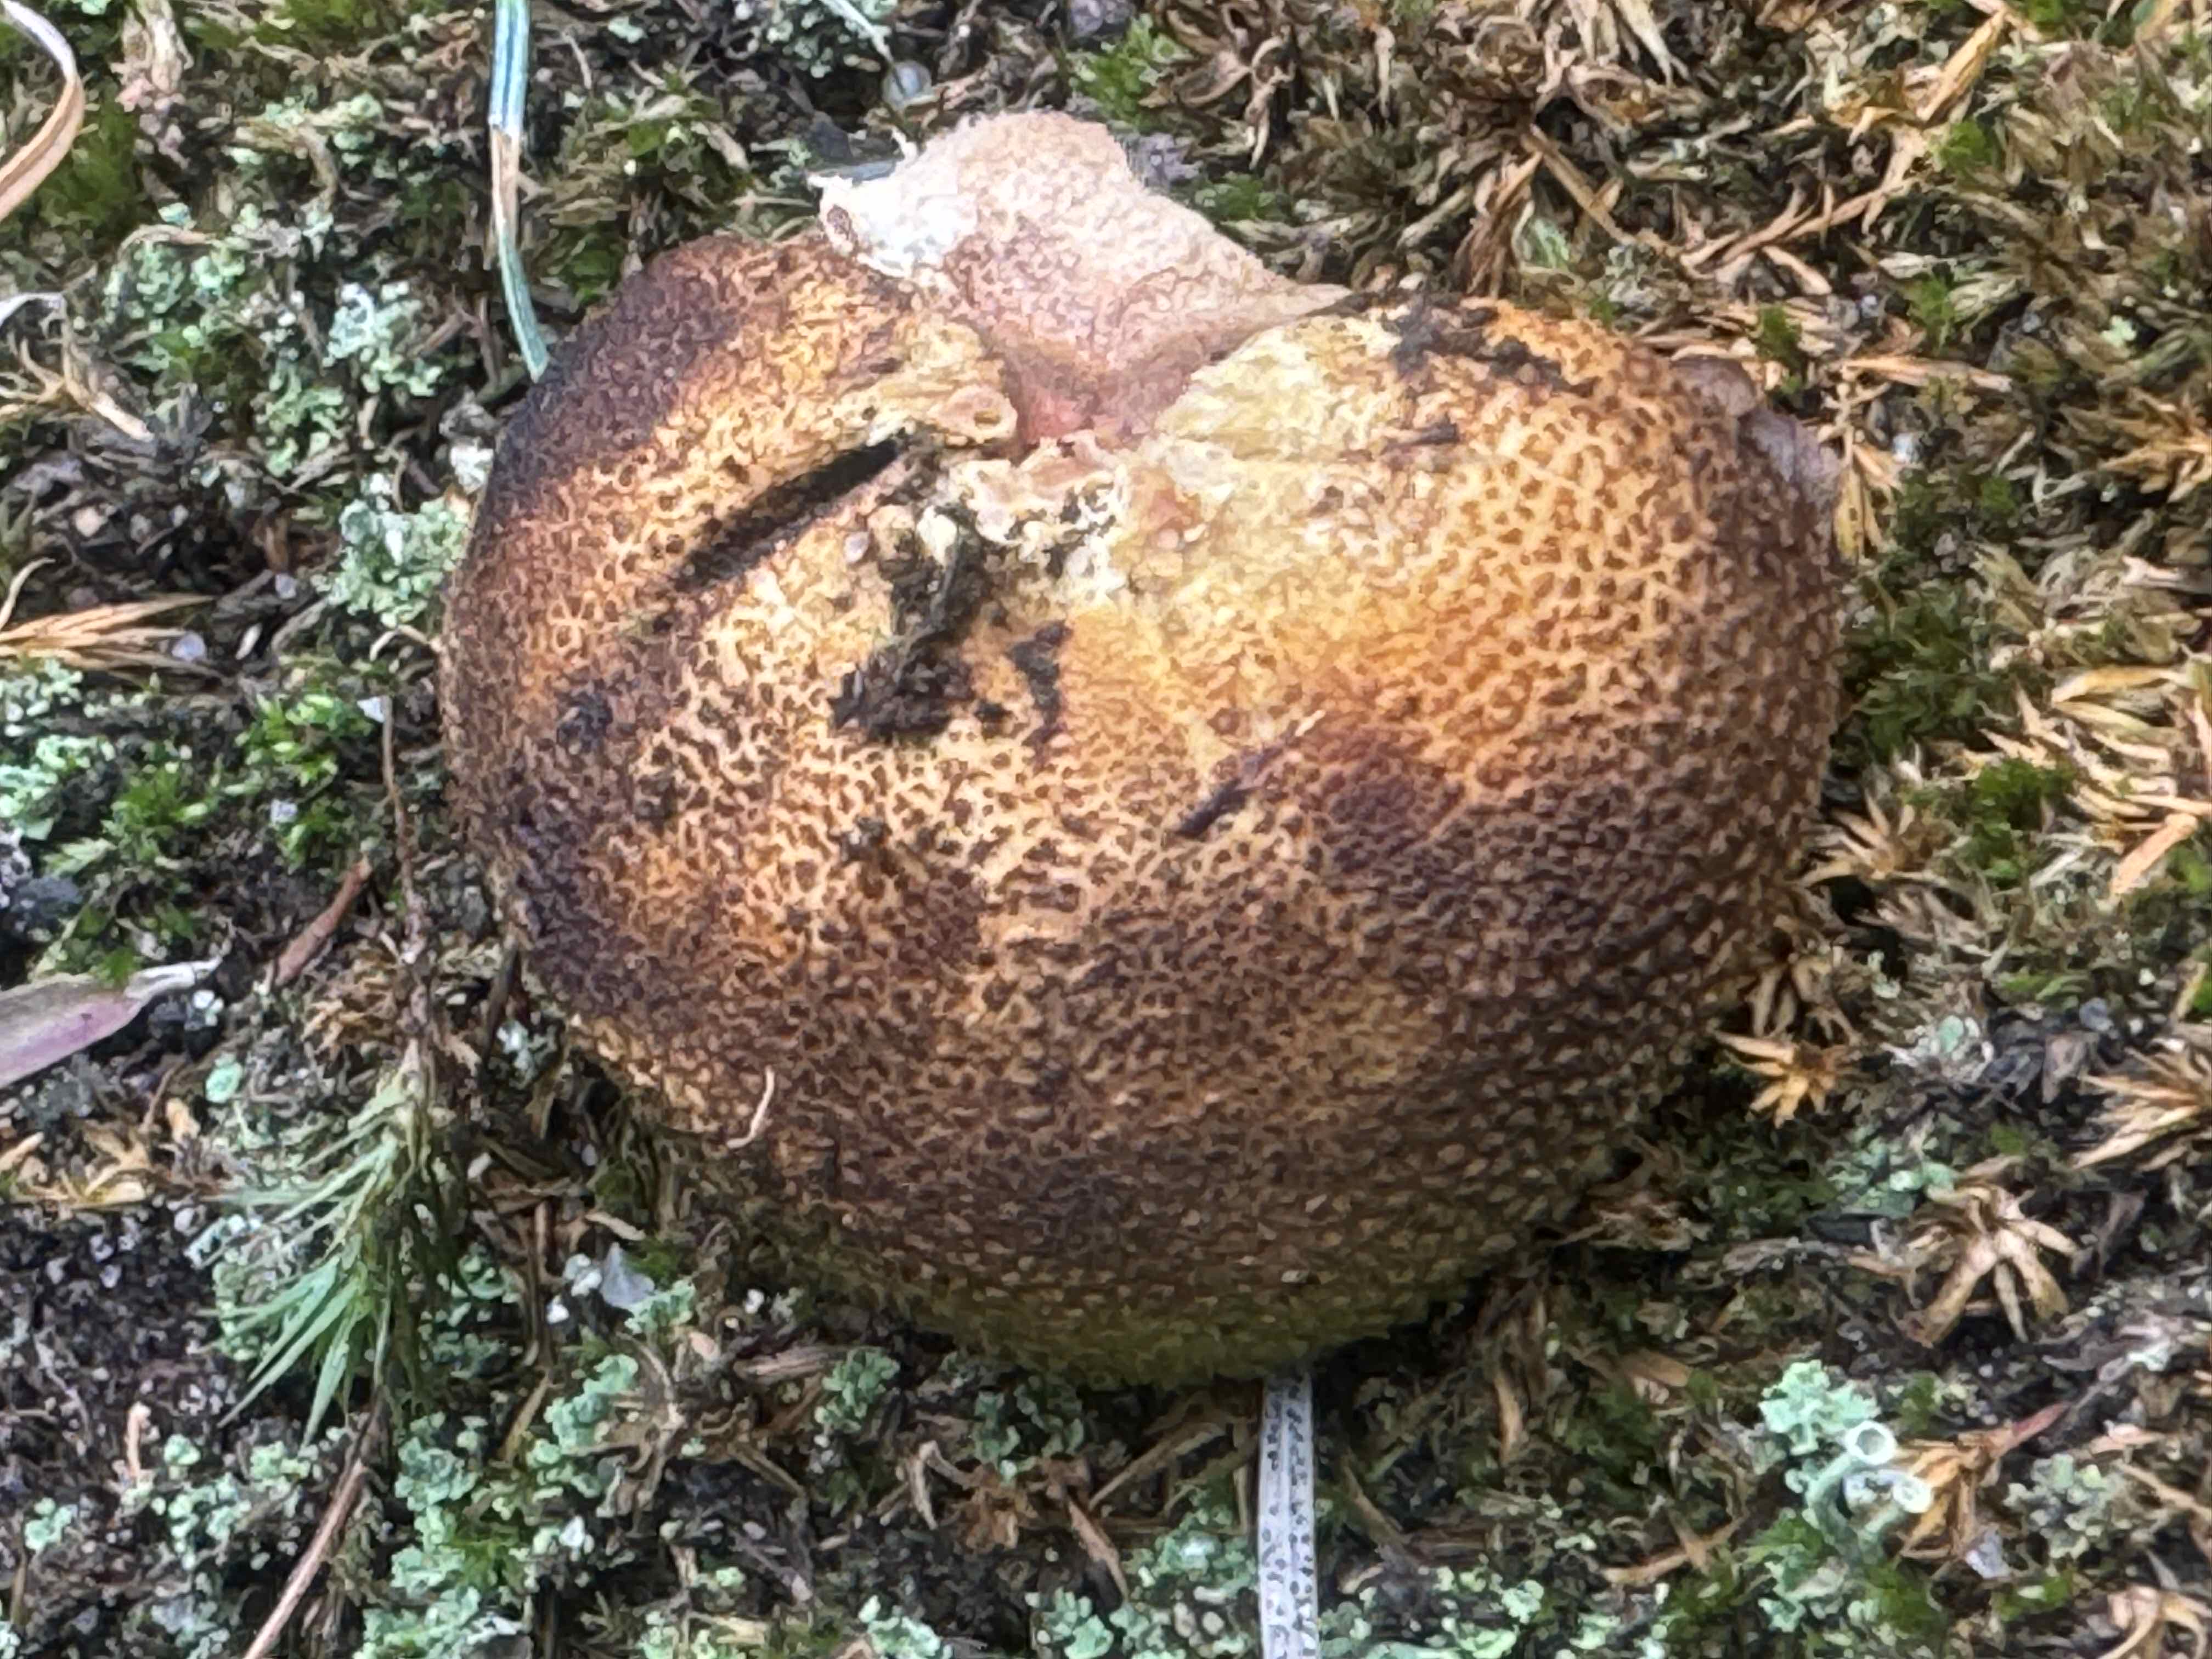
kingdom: Fungi
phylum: Basidiomycota
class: Agaricomycetes
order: Boletales
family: Sclerodermataceae
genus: Scleroderma
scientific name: Scleroderma citrinum
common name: almindelig bruskbold
